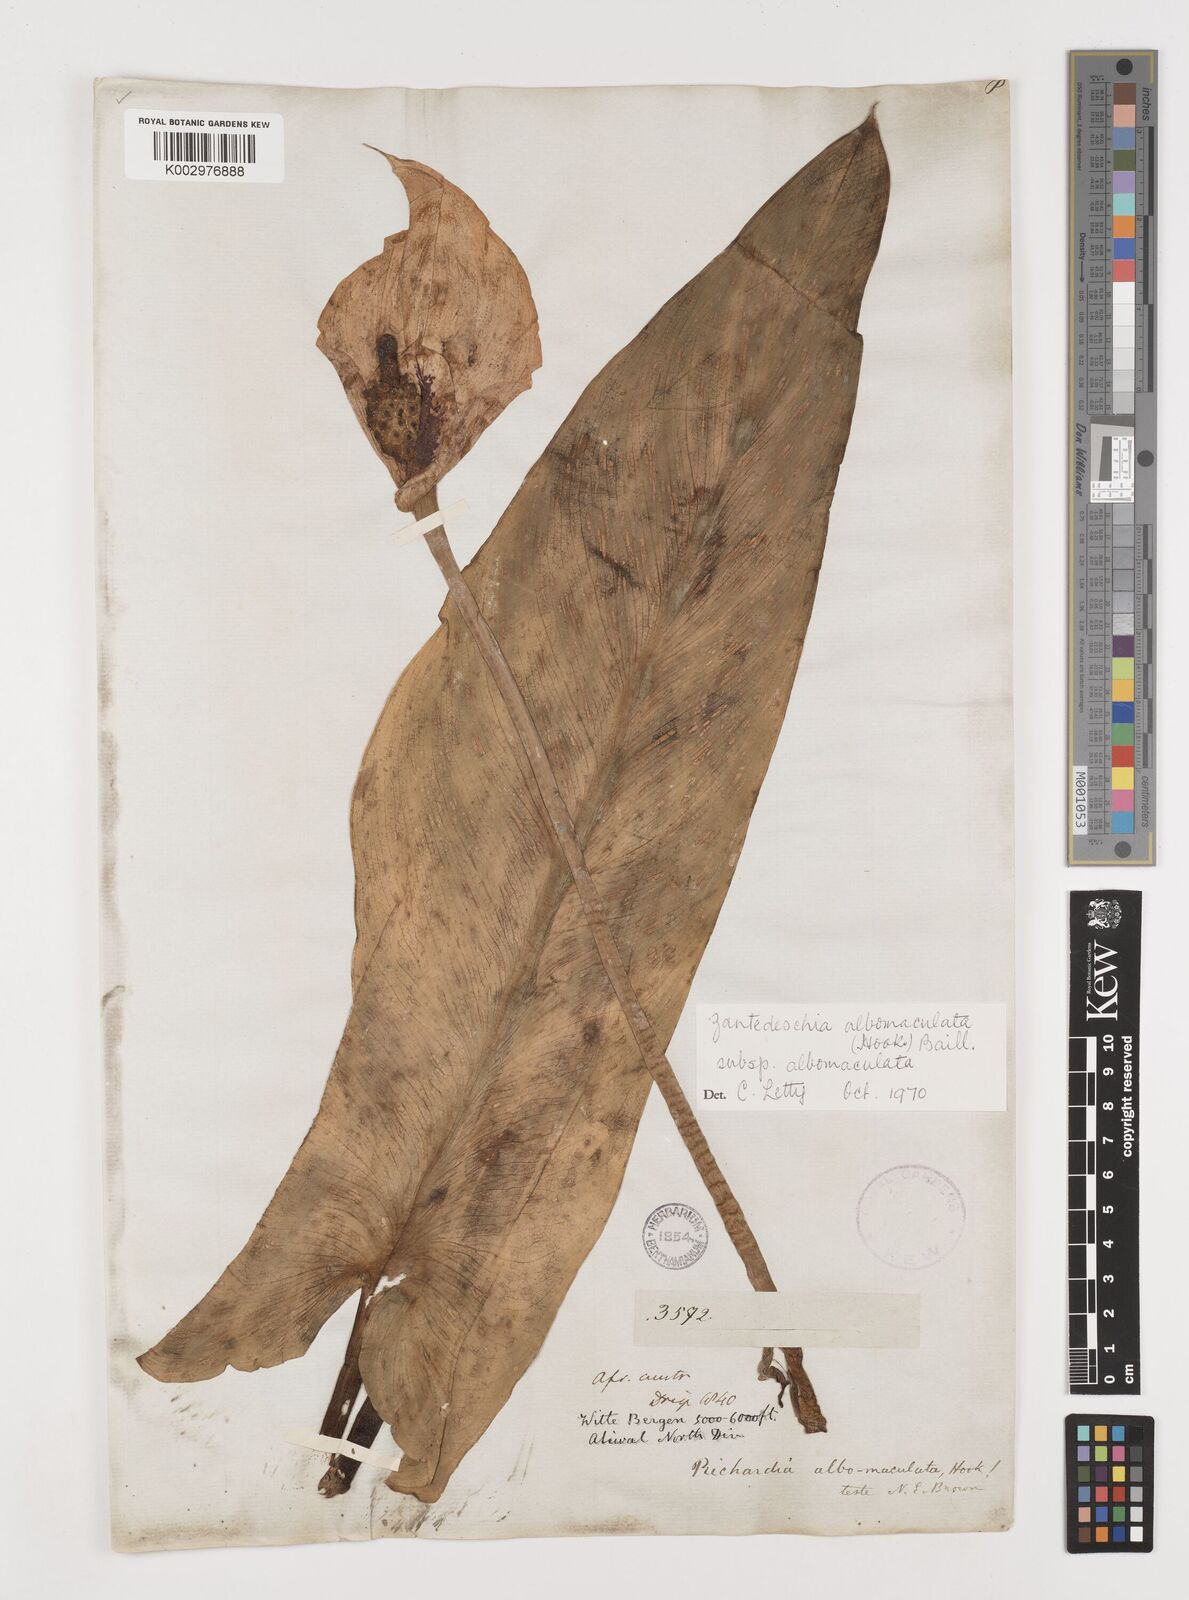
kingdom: Plantae
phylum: Tracheophyta
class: Liliopsida
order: Alismatales
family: Araceae
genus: Zantedeschia
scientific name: Zantedeschia albomaculata
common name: Spotted calla lily
